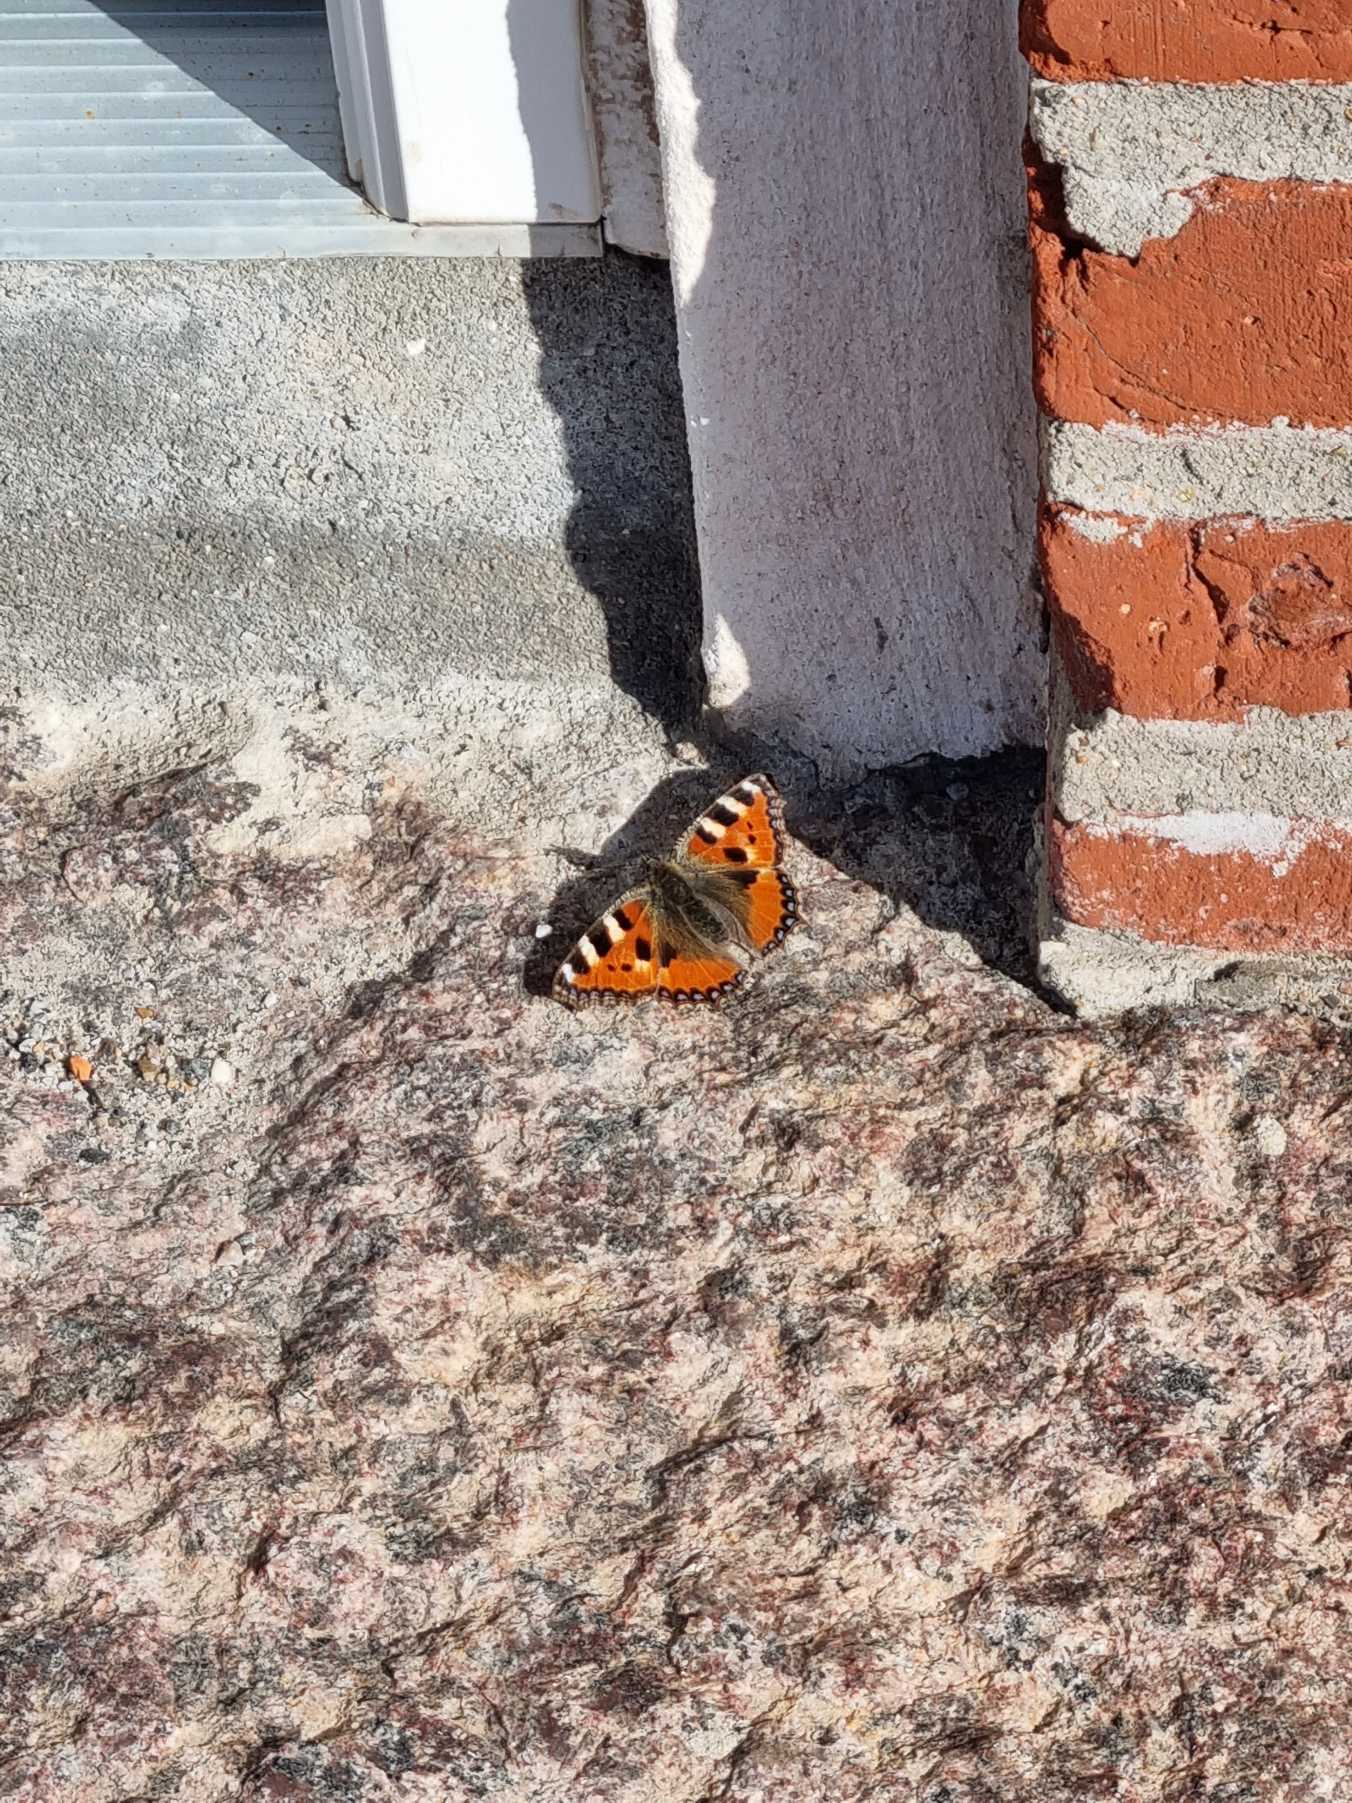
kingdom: Animalia
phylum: Arthropoda
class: Insecta
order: Lepidoptera
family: Nymphalidae
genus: Aglais
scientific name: Aglais urticae
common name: Nældens takvinge
